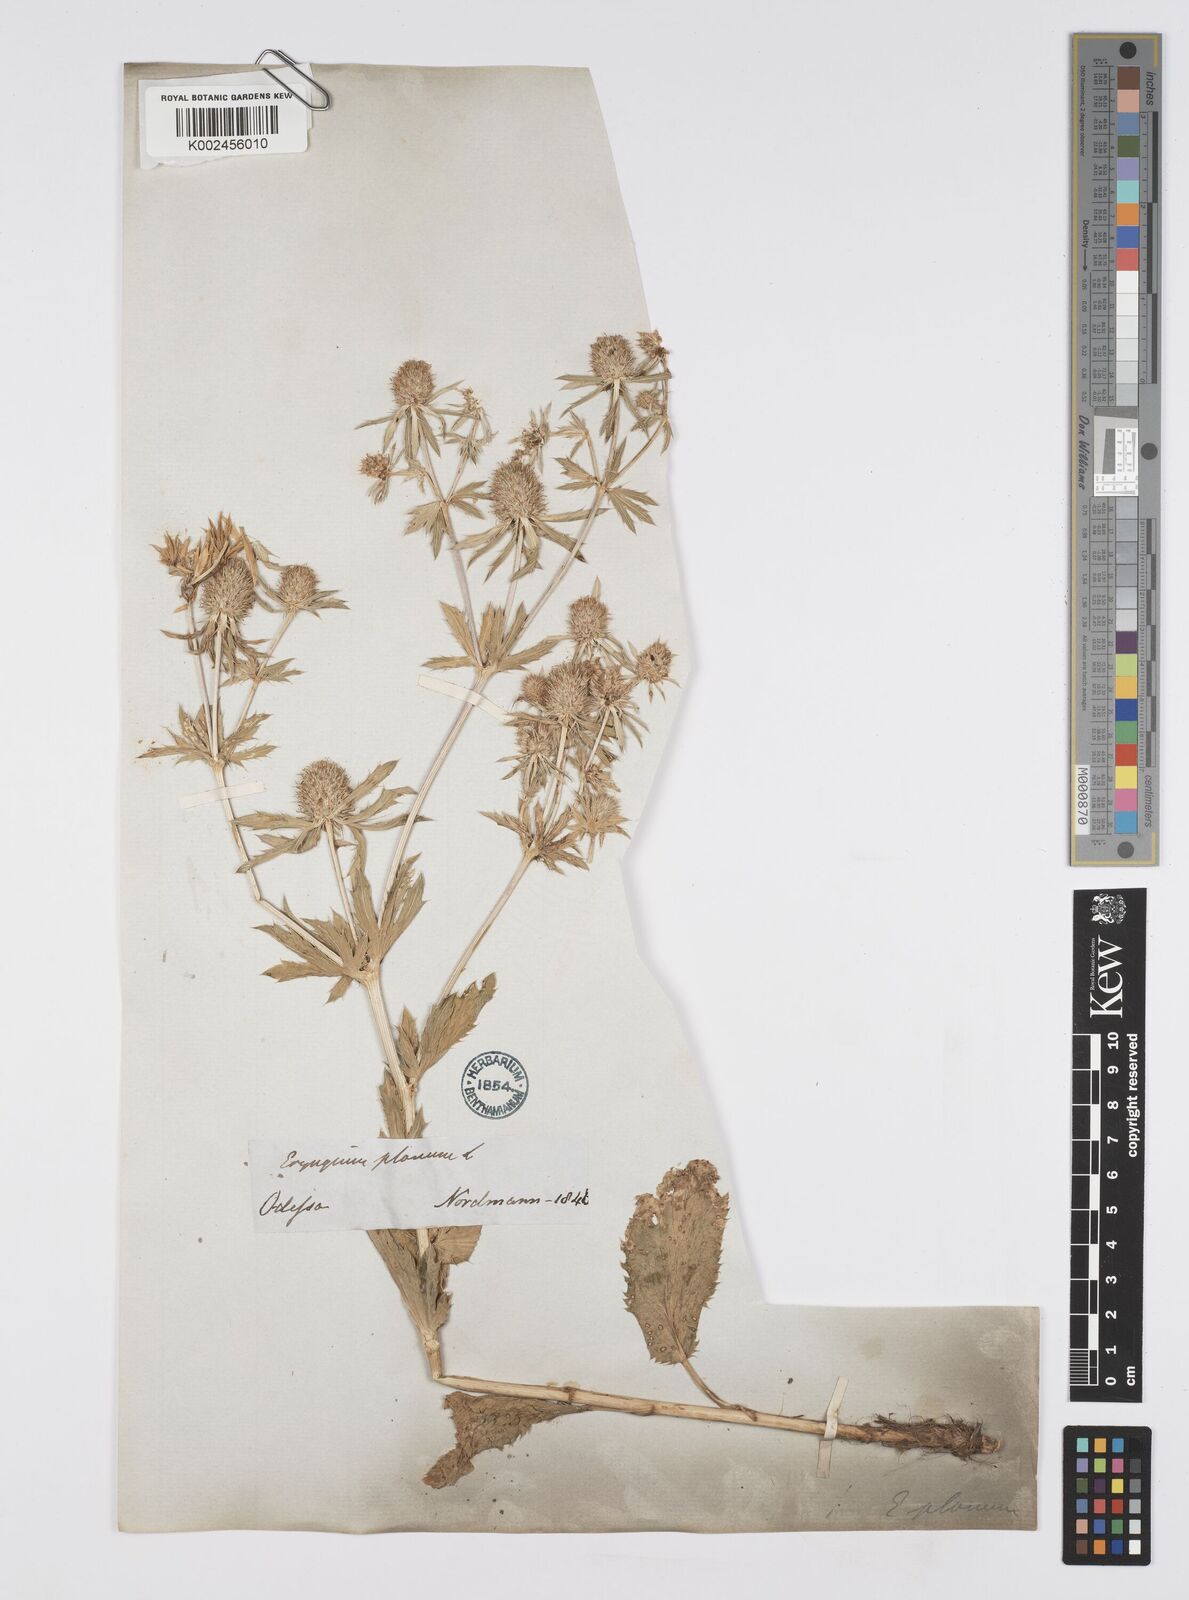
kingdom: Plantae
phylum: Tracheophyta
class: Magnoliopsida
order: Apiales
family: Apiaceae
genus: Eryngium
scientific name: Eryngium planum
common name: Blue eryngo
